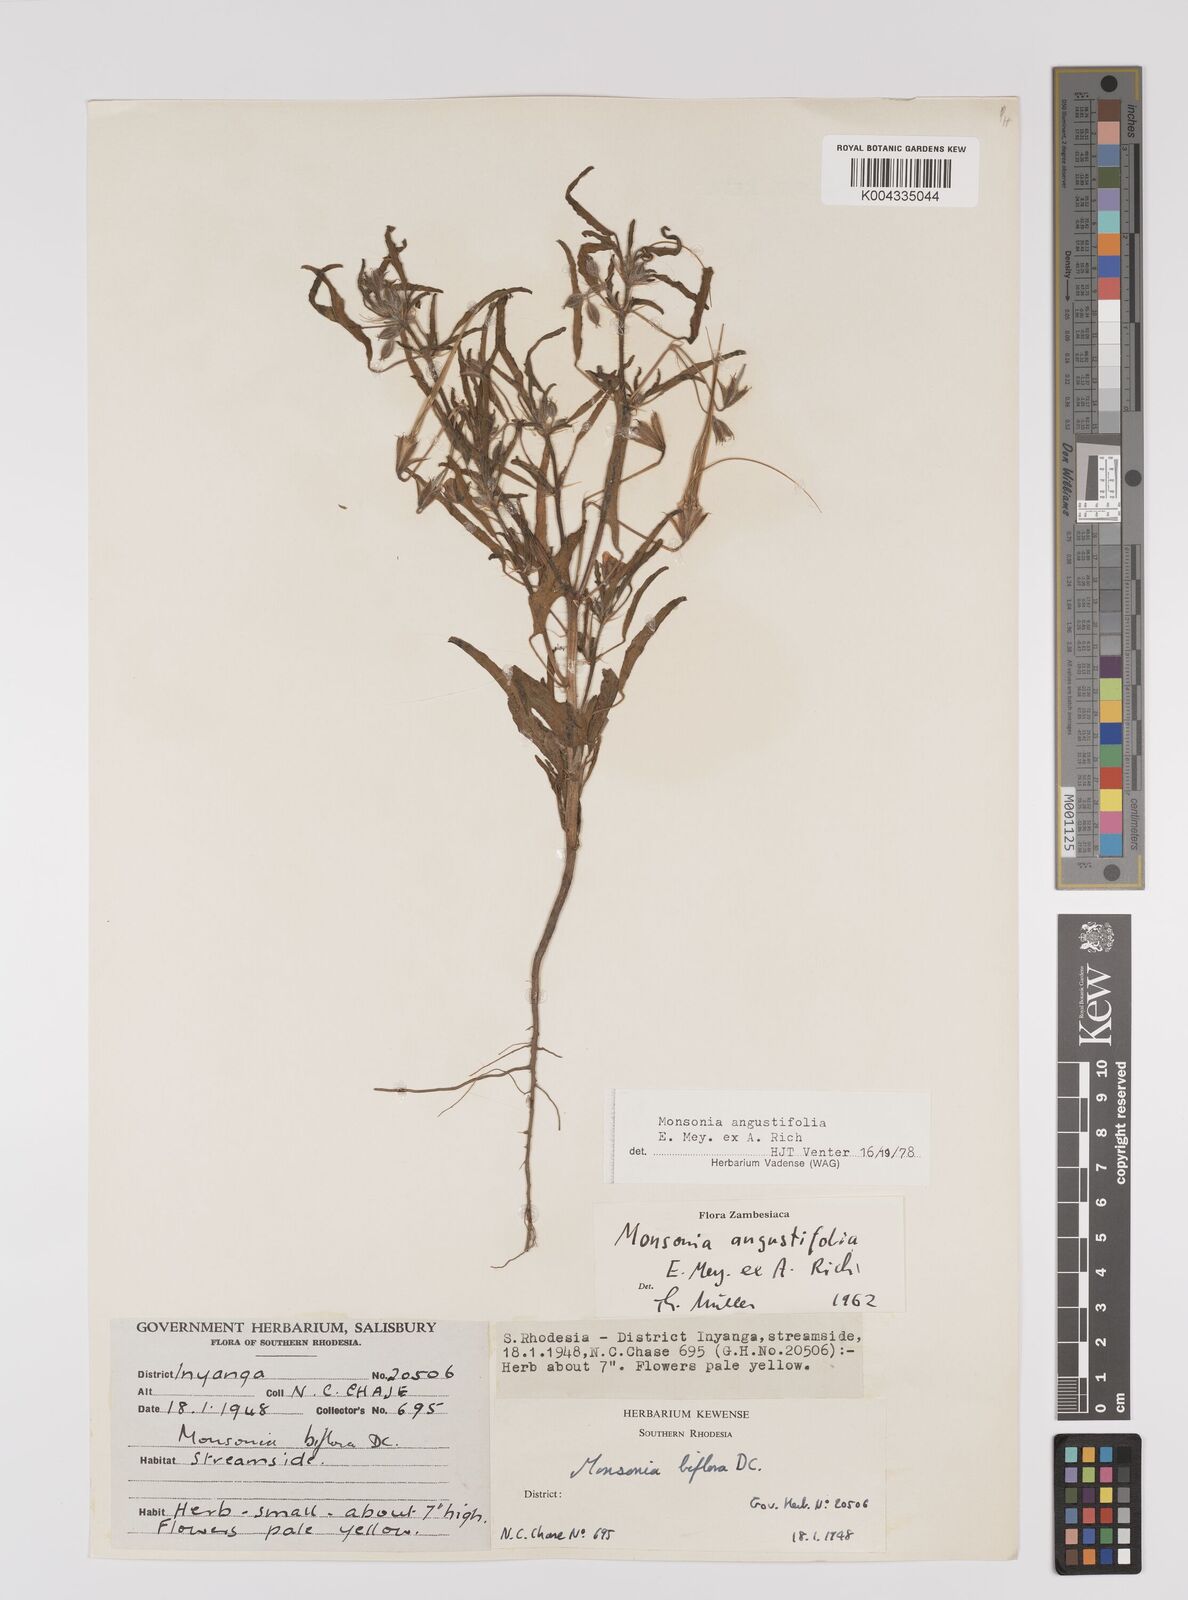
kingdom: Plantae
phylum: Tracheophyta
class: Magnoliopsida
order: Geraniales
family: Geraniaceae
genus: Monsonia
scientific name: Monsonia angustifolia
